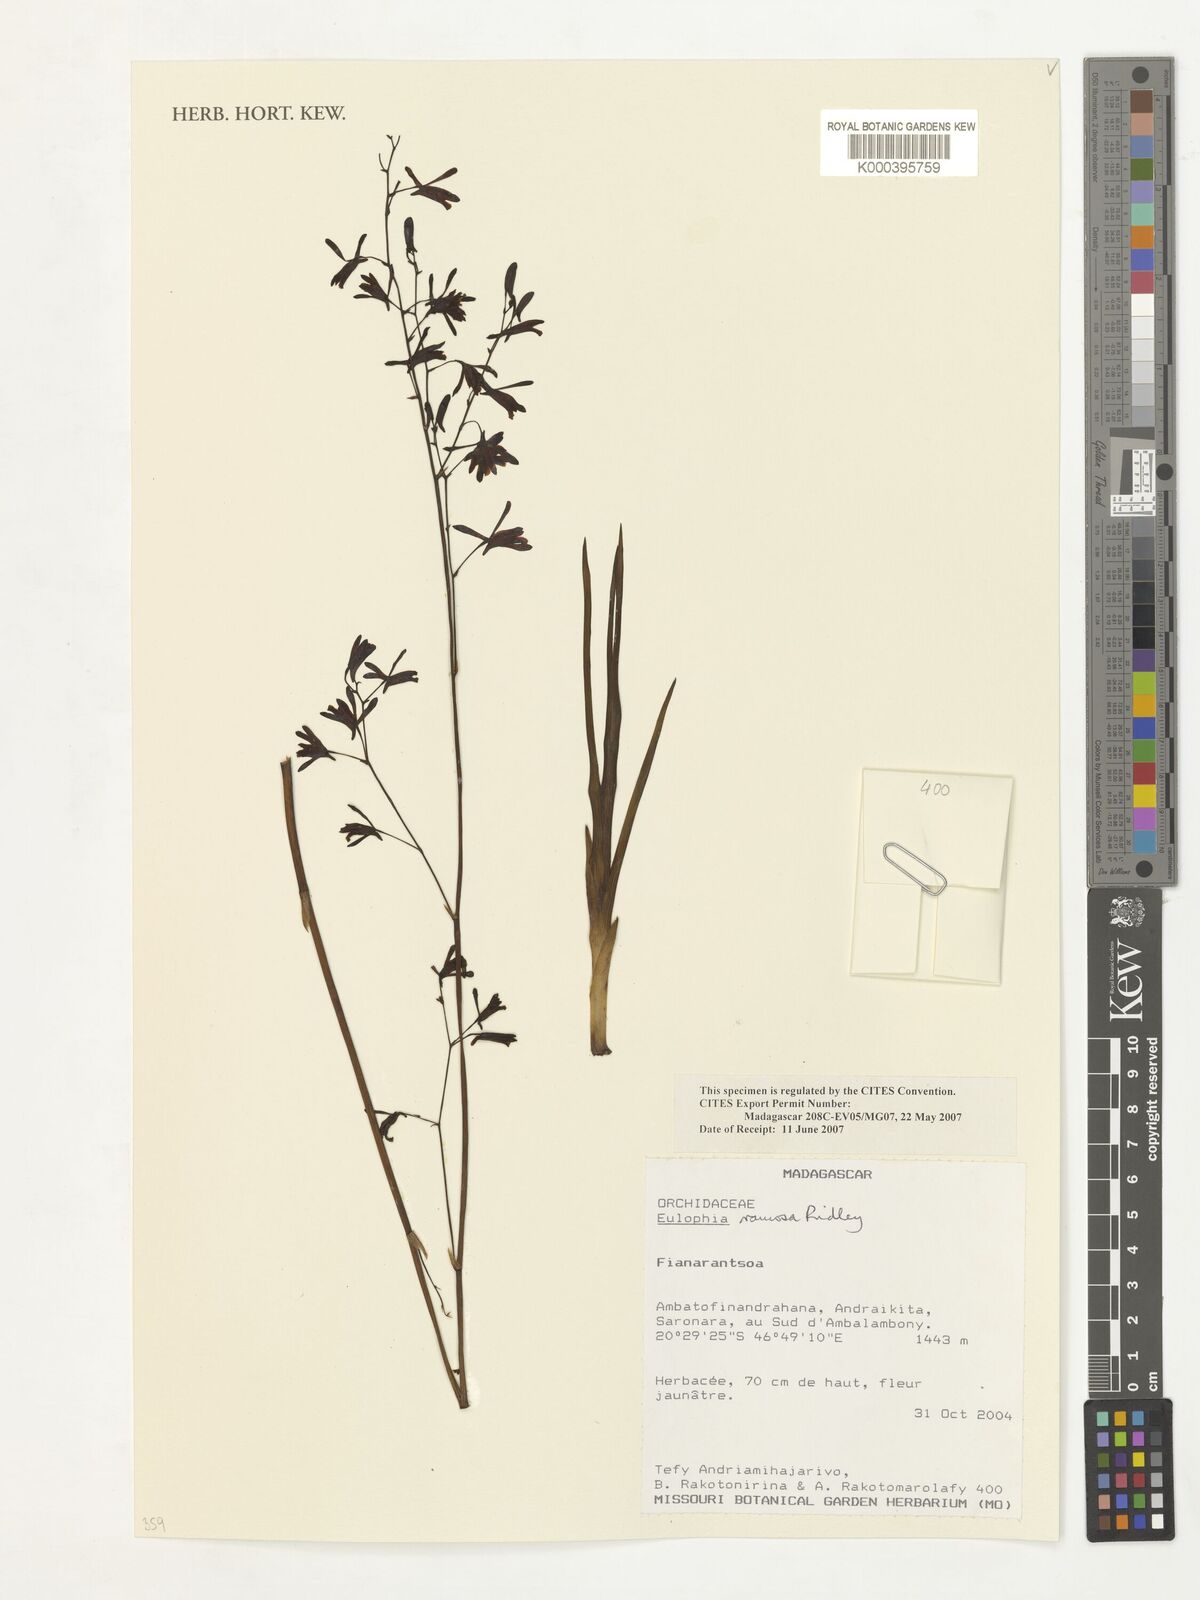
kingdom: Plantae
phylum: Tracheophyta
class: Liliopsida
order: Asparagales
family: Orchidaceae
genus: Eulophia
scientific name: Eulophia graminea
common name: Orchid
